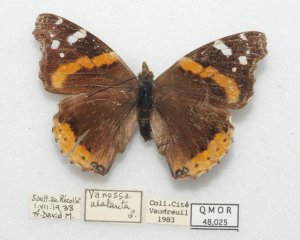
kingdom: Animalia
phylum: Arthropoda
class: Insecta
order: Lepidoptera
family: Nymphalidae
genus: Vanessa
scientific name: Vanessa atalanta
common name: Red Admiral
